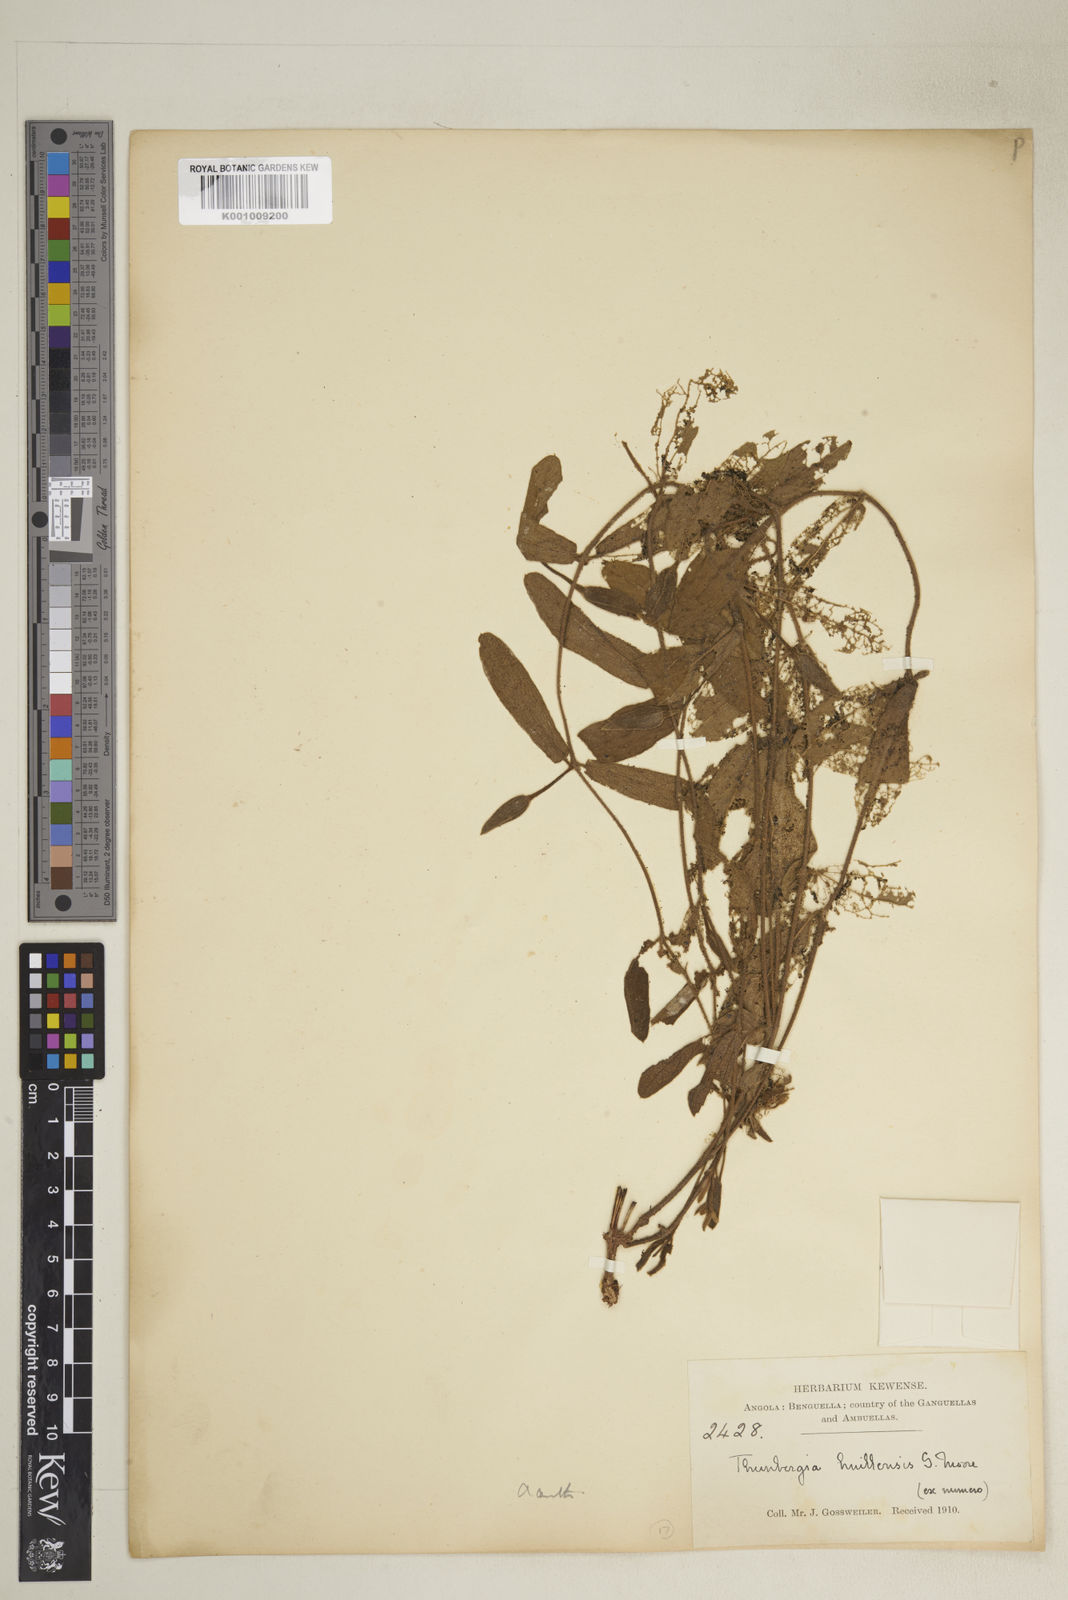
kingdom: Plantae
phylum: Tracheophyta
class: Magnoliopsida
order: Lamiales
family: Acanthaceae
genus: Thunbergia
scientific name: Thunbergia huillensis
